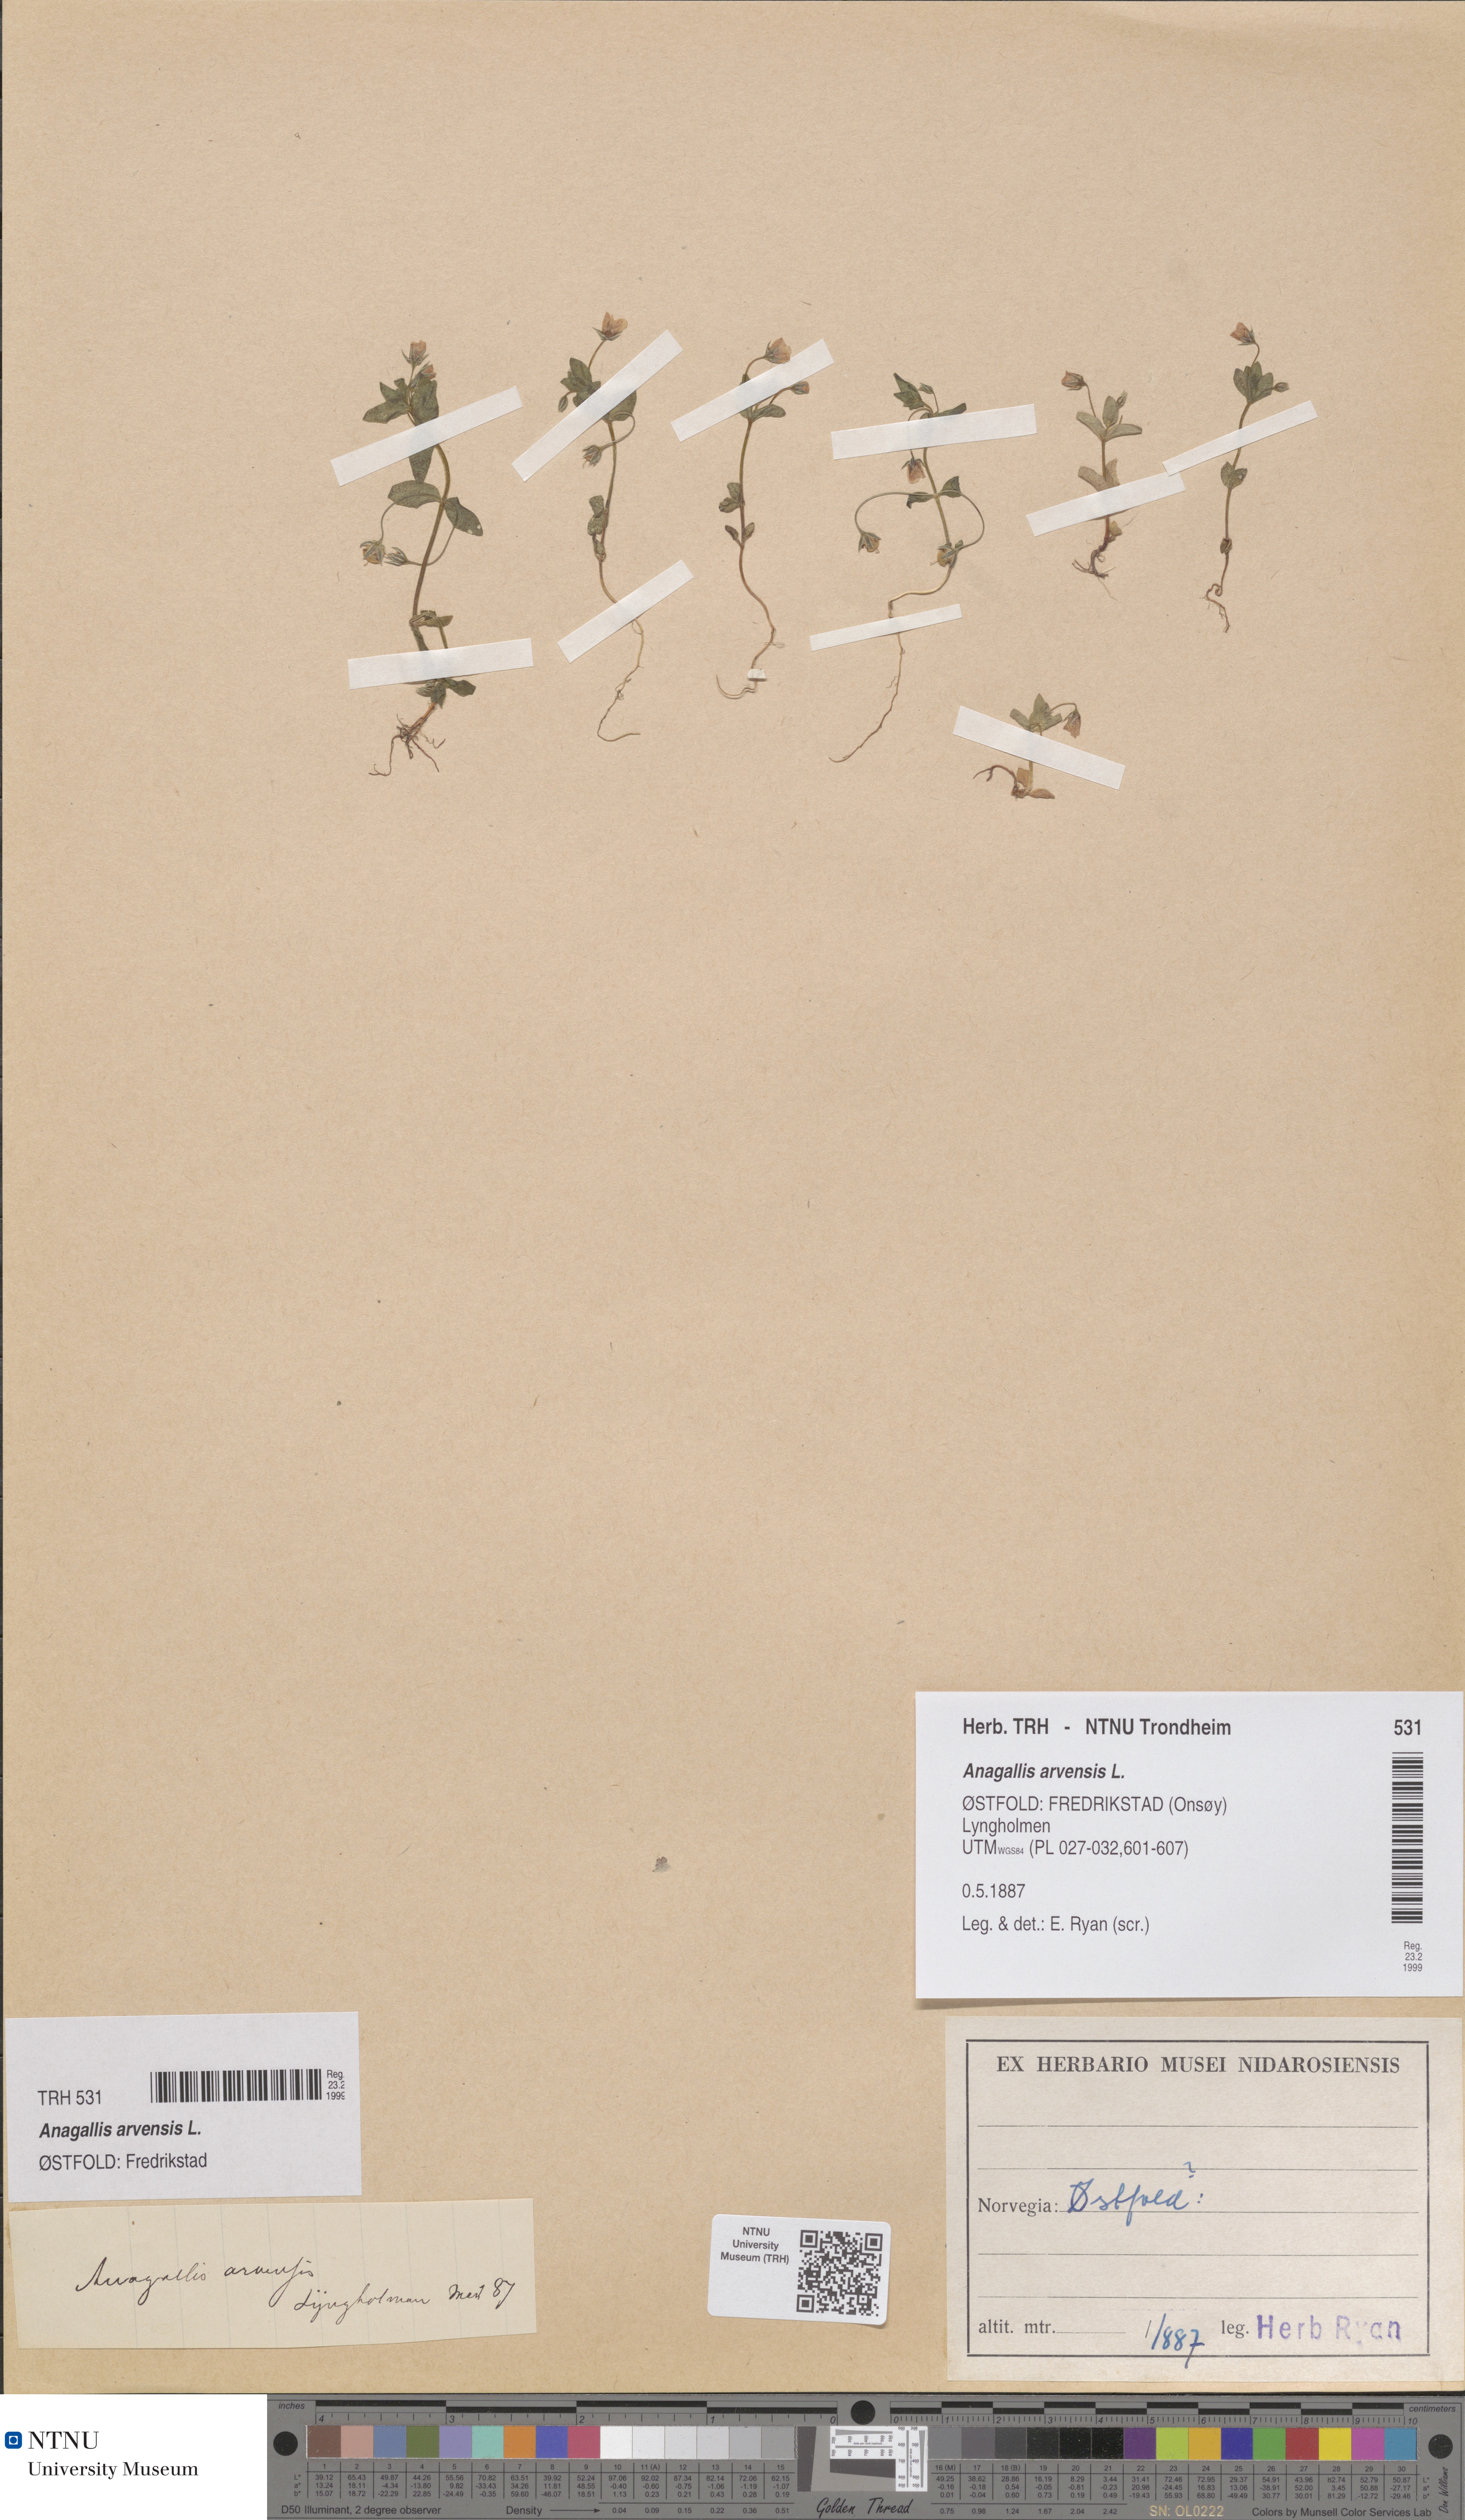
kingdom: Plantae
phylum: Tracheophyta
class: Magnoliopsida
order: Ericales
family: Primulaceae
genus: Lysimachia
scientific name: Lysimachia arvensis
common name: Scarlet pimpernel
